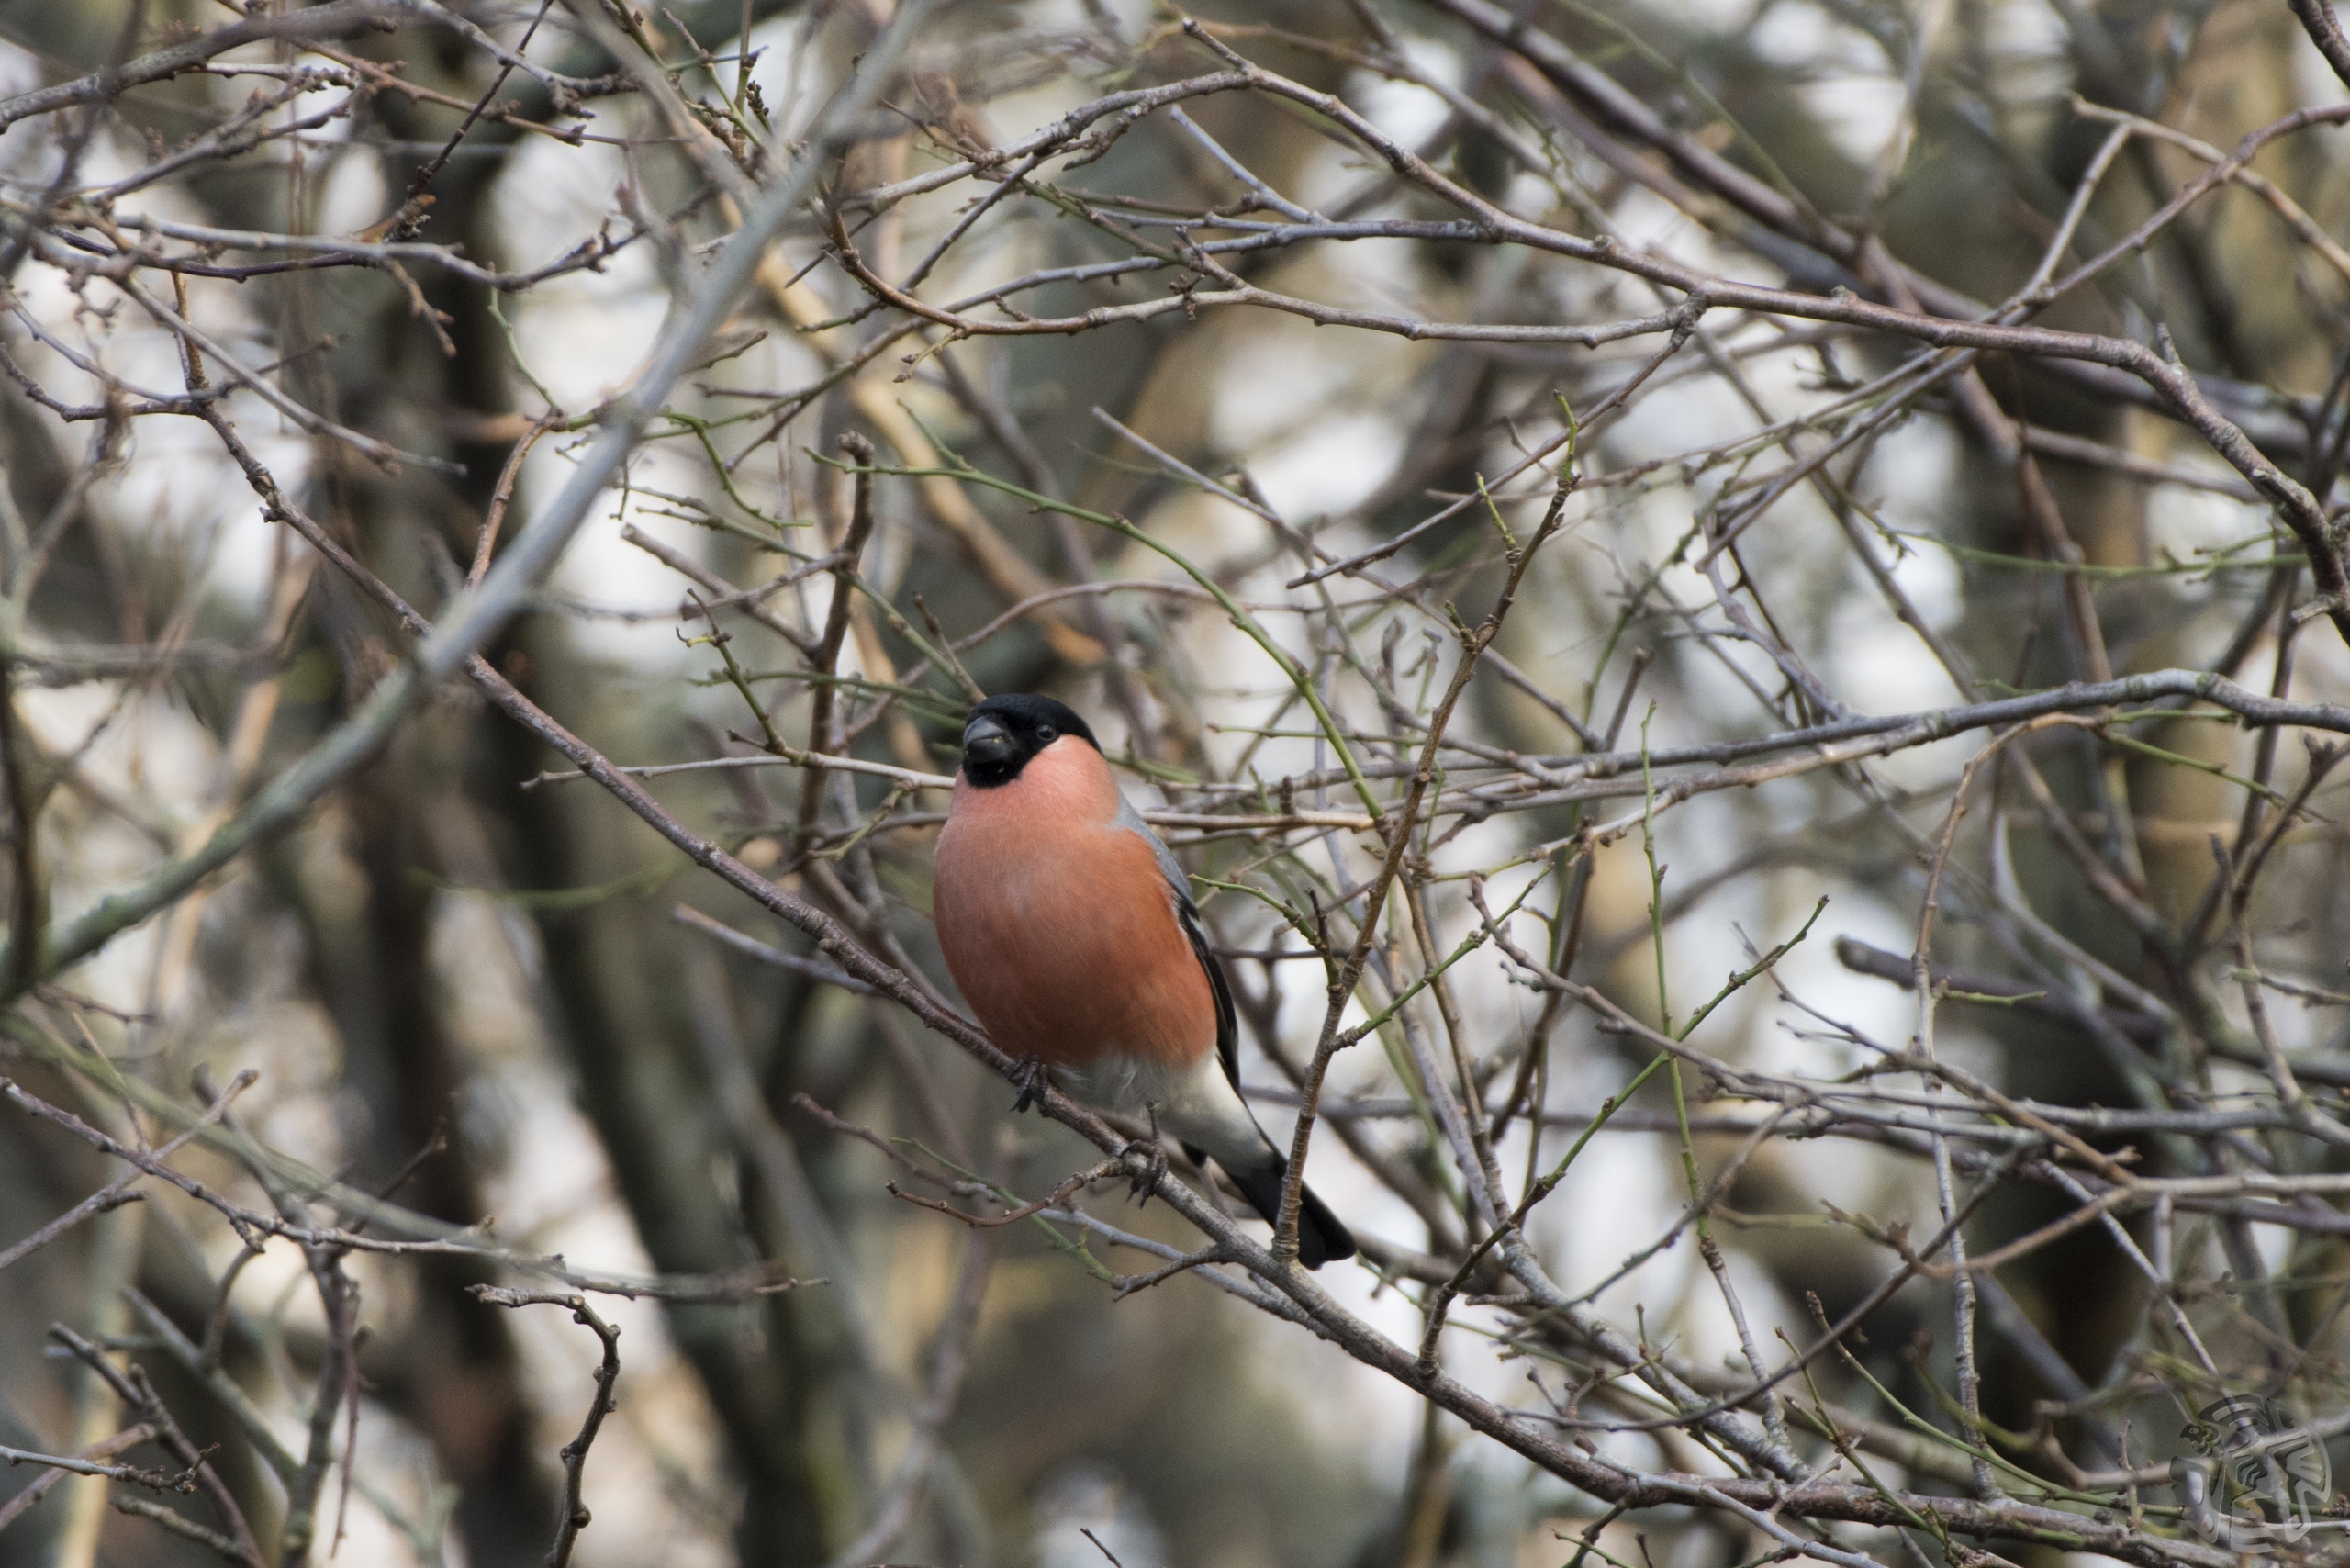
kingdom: Animalia
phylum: Chordata
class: Aves
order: Passeriformes
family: Fringillidae
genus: Pyrrhula
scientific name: Pyrrhula pyrrhula
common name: Dompap
